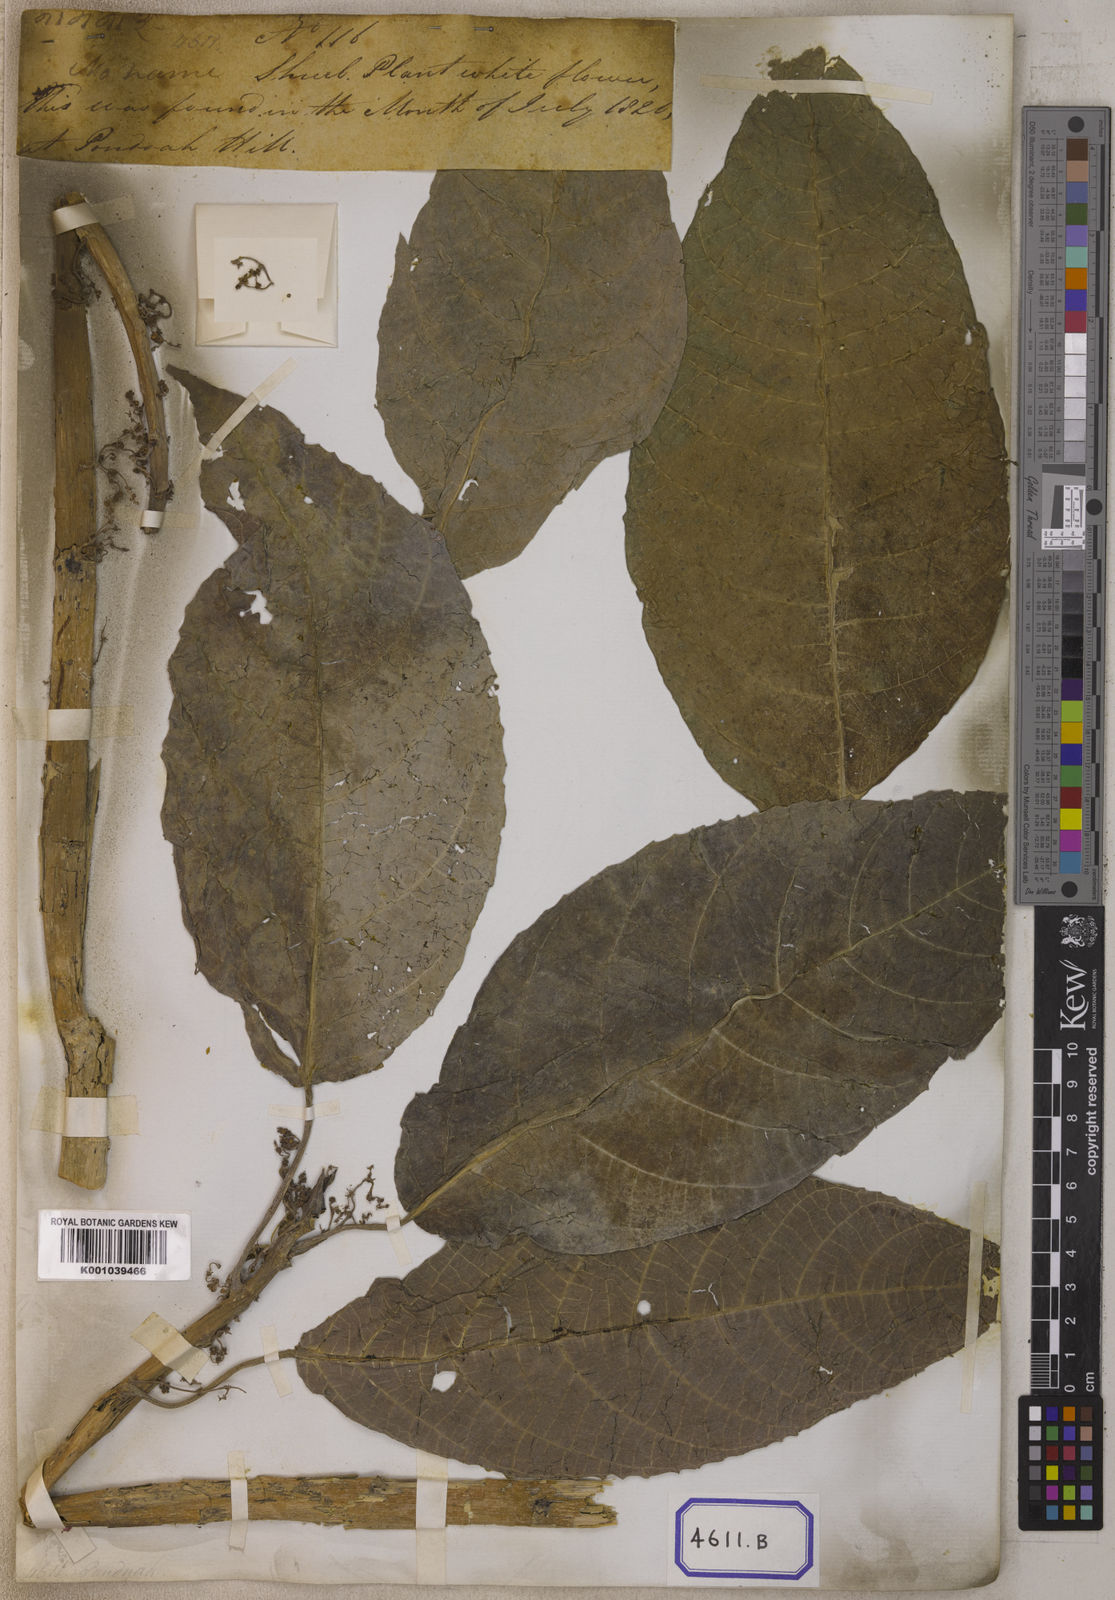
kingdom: Plantae
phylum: Tracheophyta
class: Magnoliopsida
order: Rosales
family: Urticaceae
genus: Dendrocnide
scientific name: Dendrocnide sinuata
